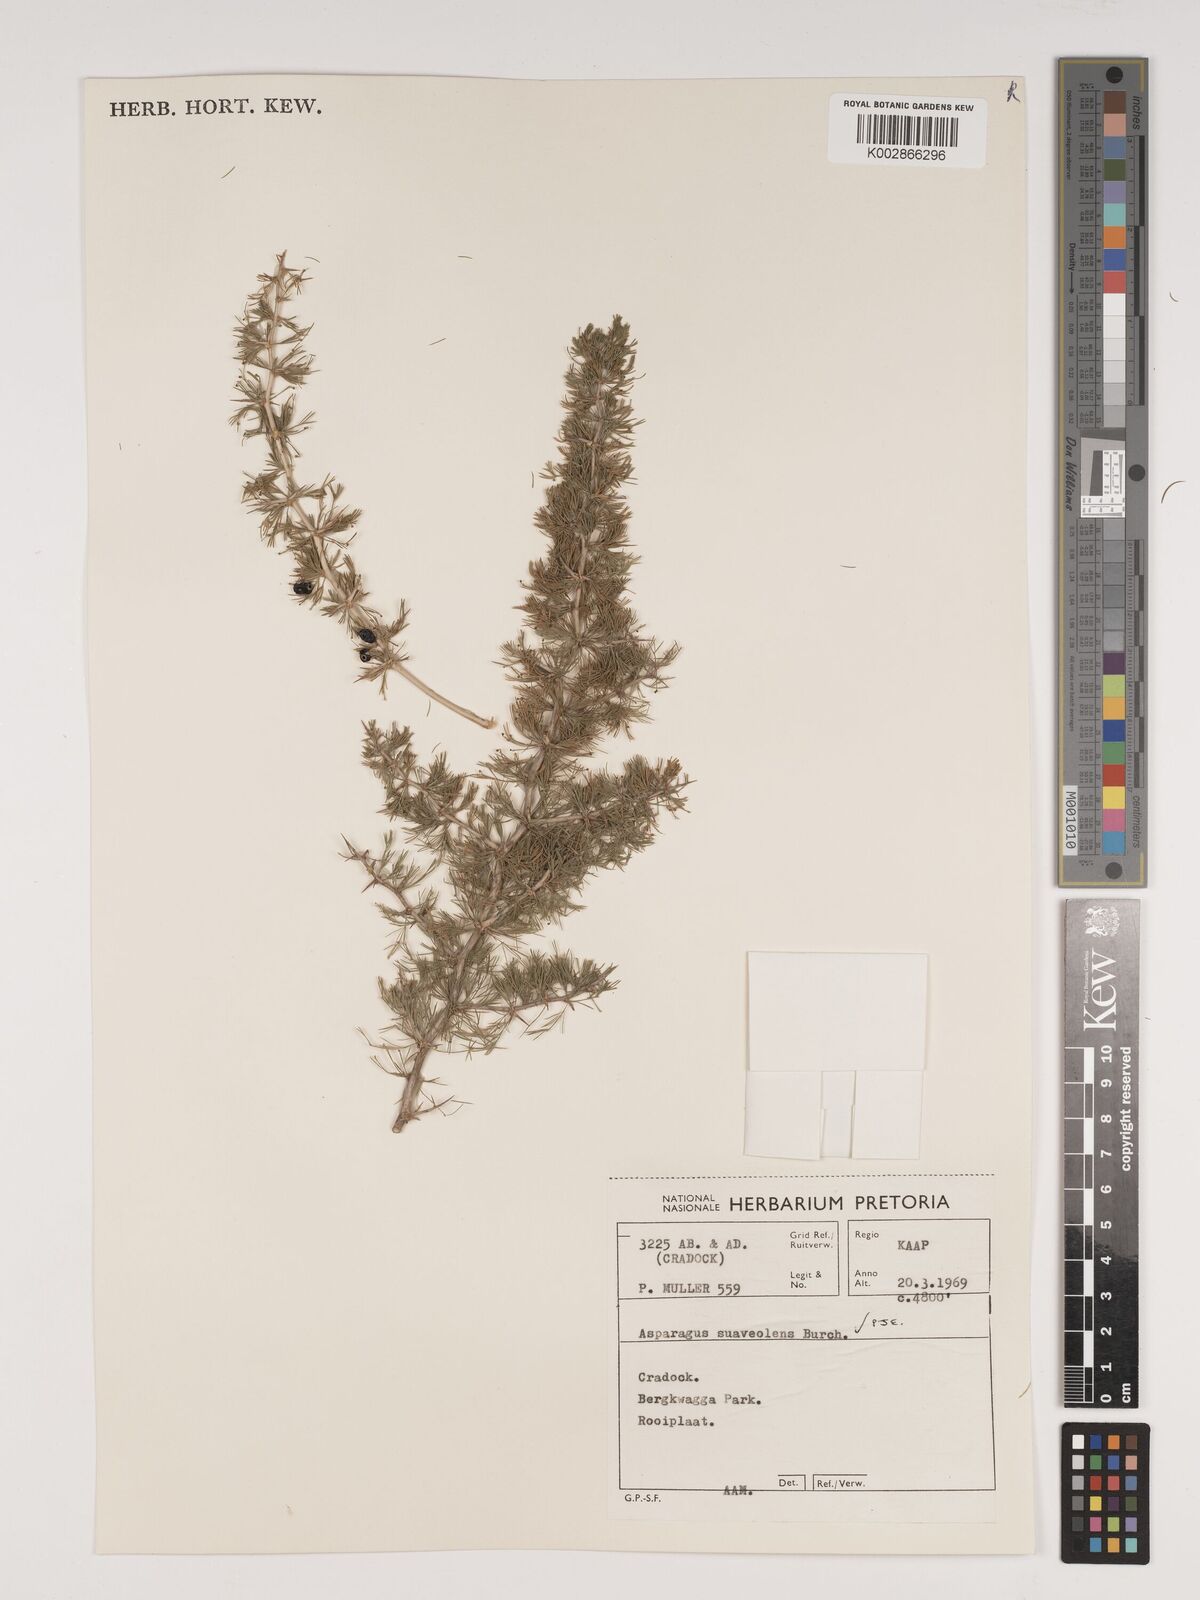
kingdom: Plantae
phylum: Tracheophyta
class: Liliopsida
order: Asparagales
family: Asparagaceae
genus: Asparagus
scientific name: Asparagus suaveolens
